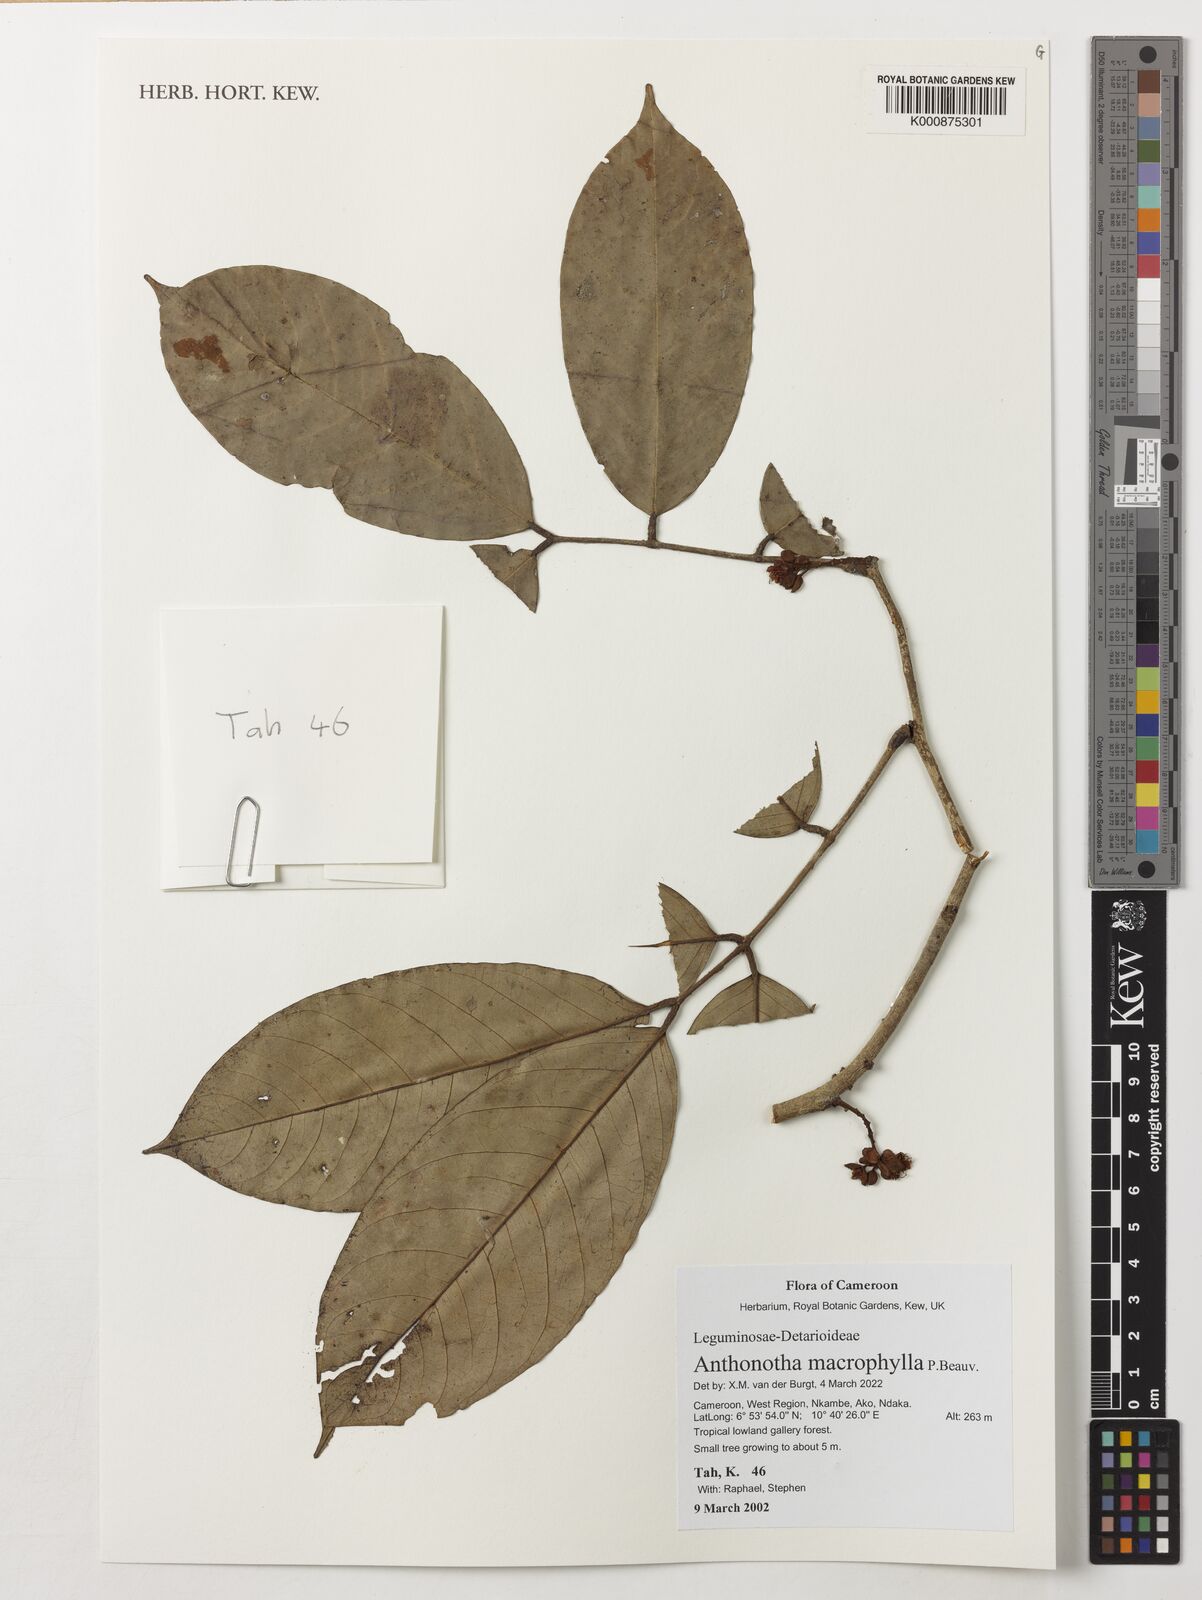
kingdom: Plantae
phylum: Tracheophyta
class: Magnoliopsida
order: Fabales
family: Fabaceae
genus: Anthonotha
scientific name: Anthonotha macrophylla
